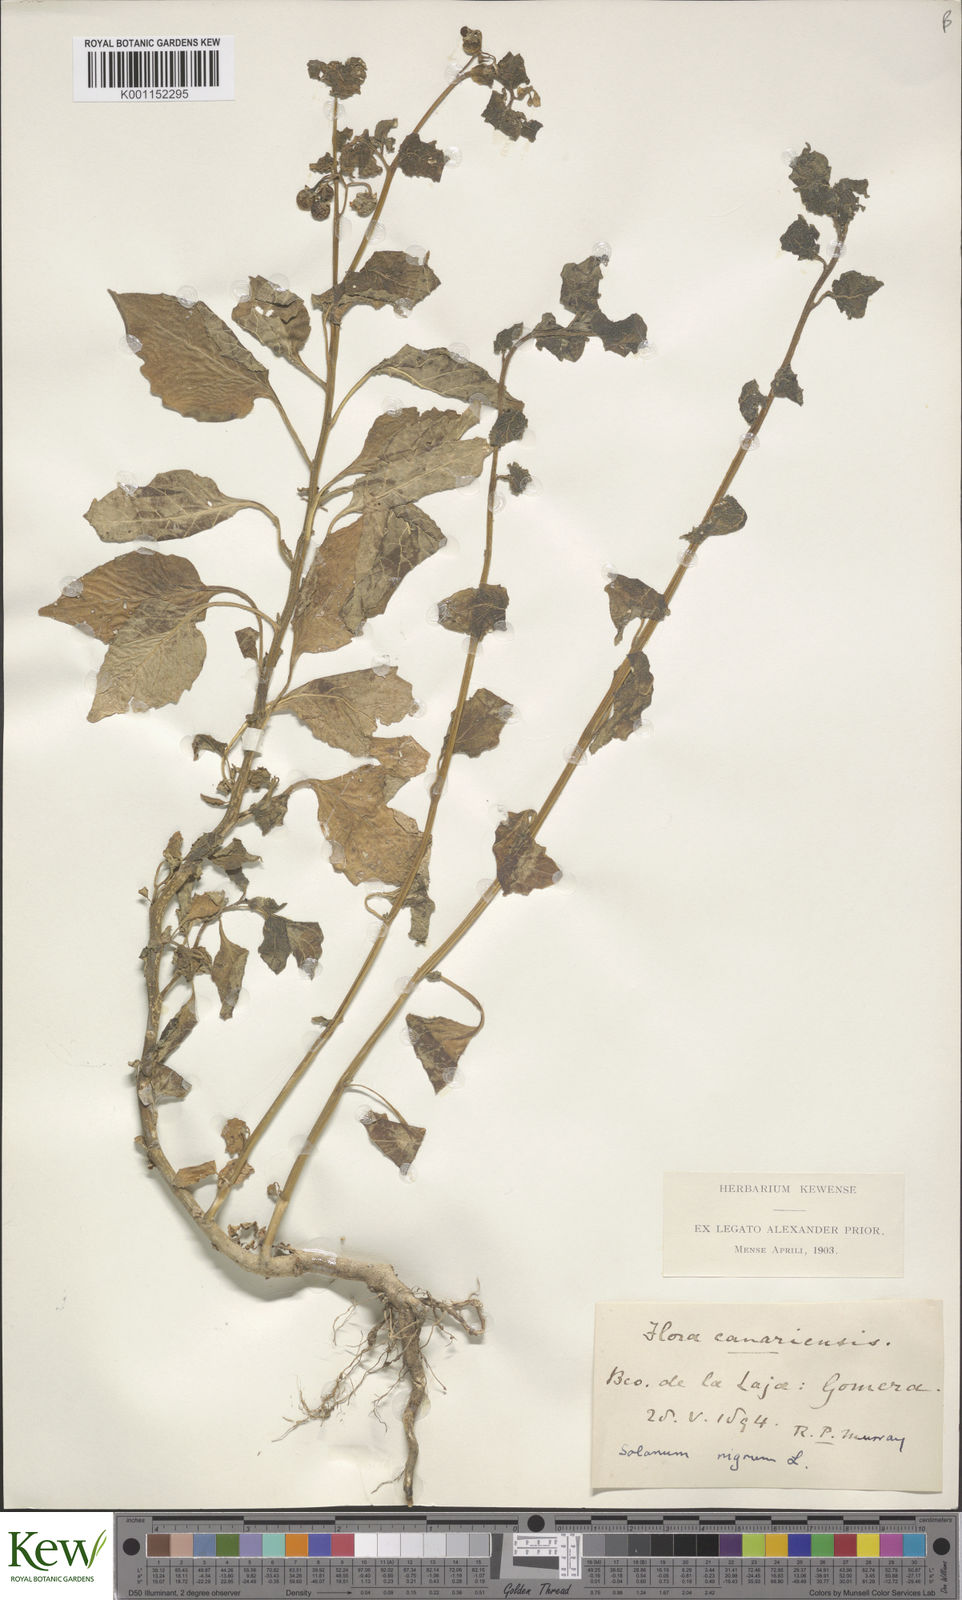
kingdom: Plantae
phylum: Tracheophyta
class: Magnoliopsida
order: Solanales
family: Solanaceae
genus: Solanum
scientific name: Solanum nigrum
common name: Black nightshade
